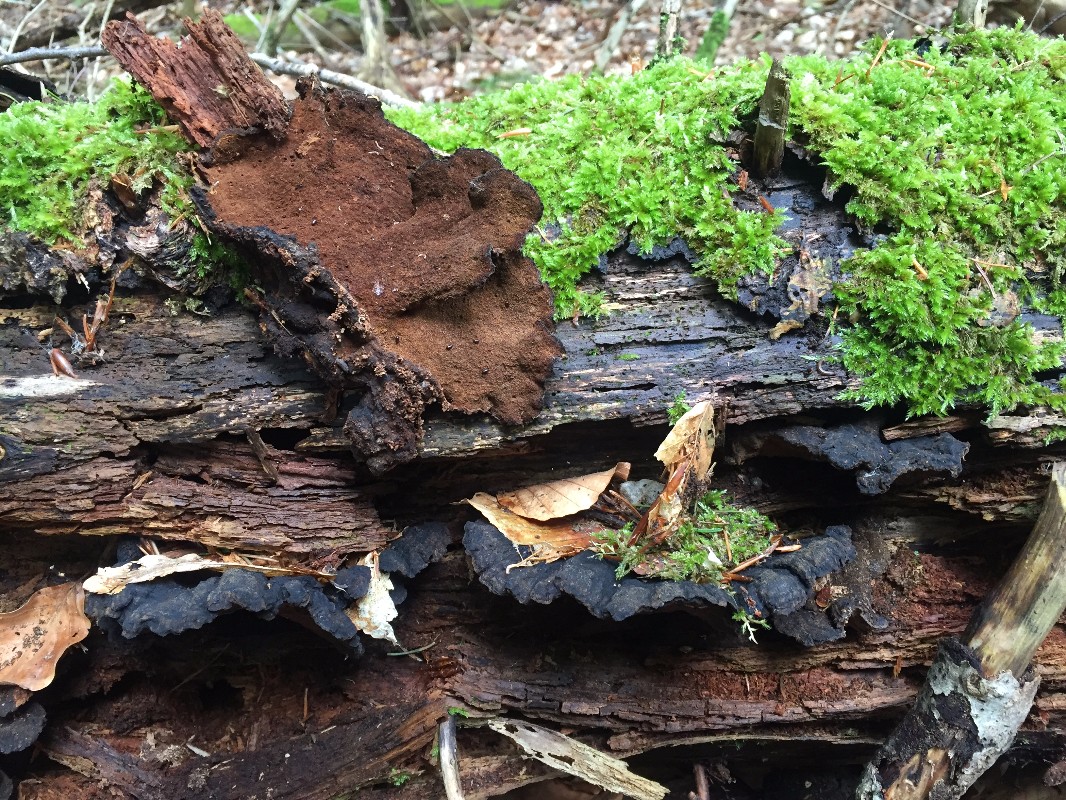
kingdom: Fungi
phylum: Basidiomycota
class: Agaricomycetes
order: Polyporales
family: Ischnodermataceae
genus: Ischnoderma
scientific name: Ischnoderma benzoinum
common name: gran-tjæreporesvamp
